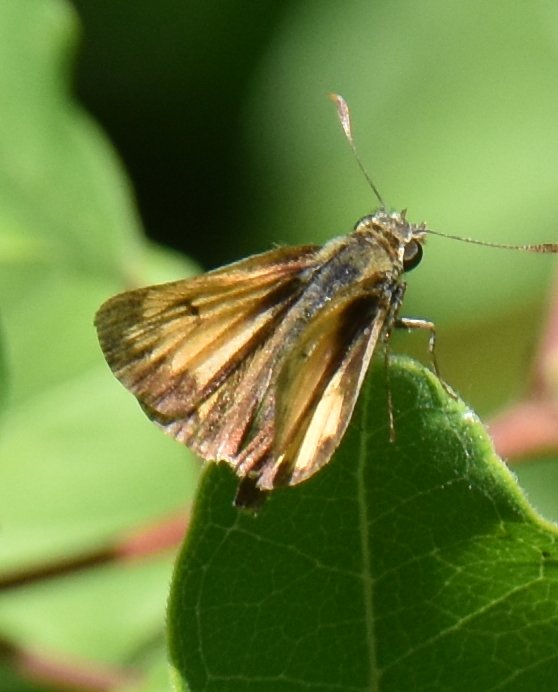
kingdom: Animalia
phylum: Arthropoda
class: Insecta
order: Lepidoptera
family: Hesperiidae
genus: Lon
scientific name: Lon hobomok
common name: Hobomok Skipper
